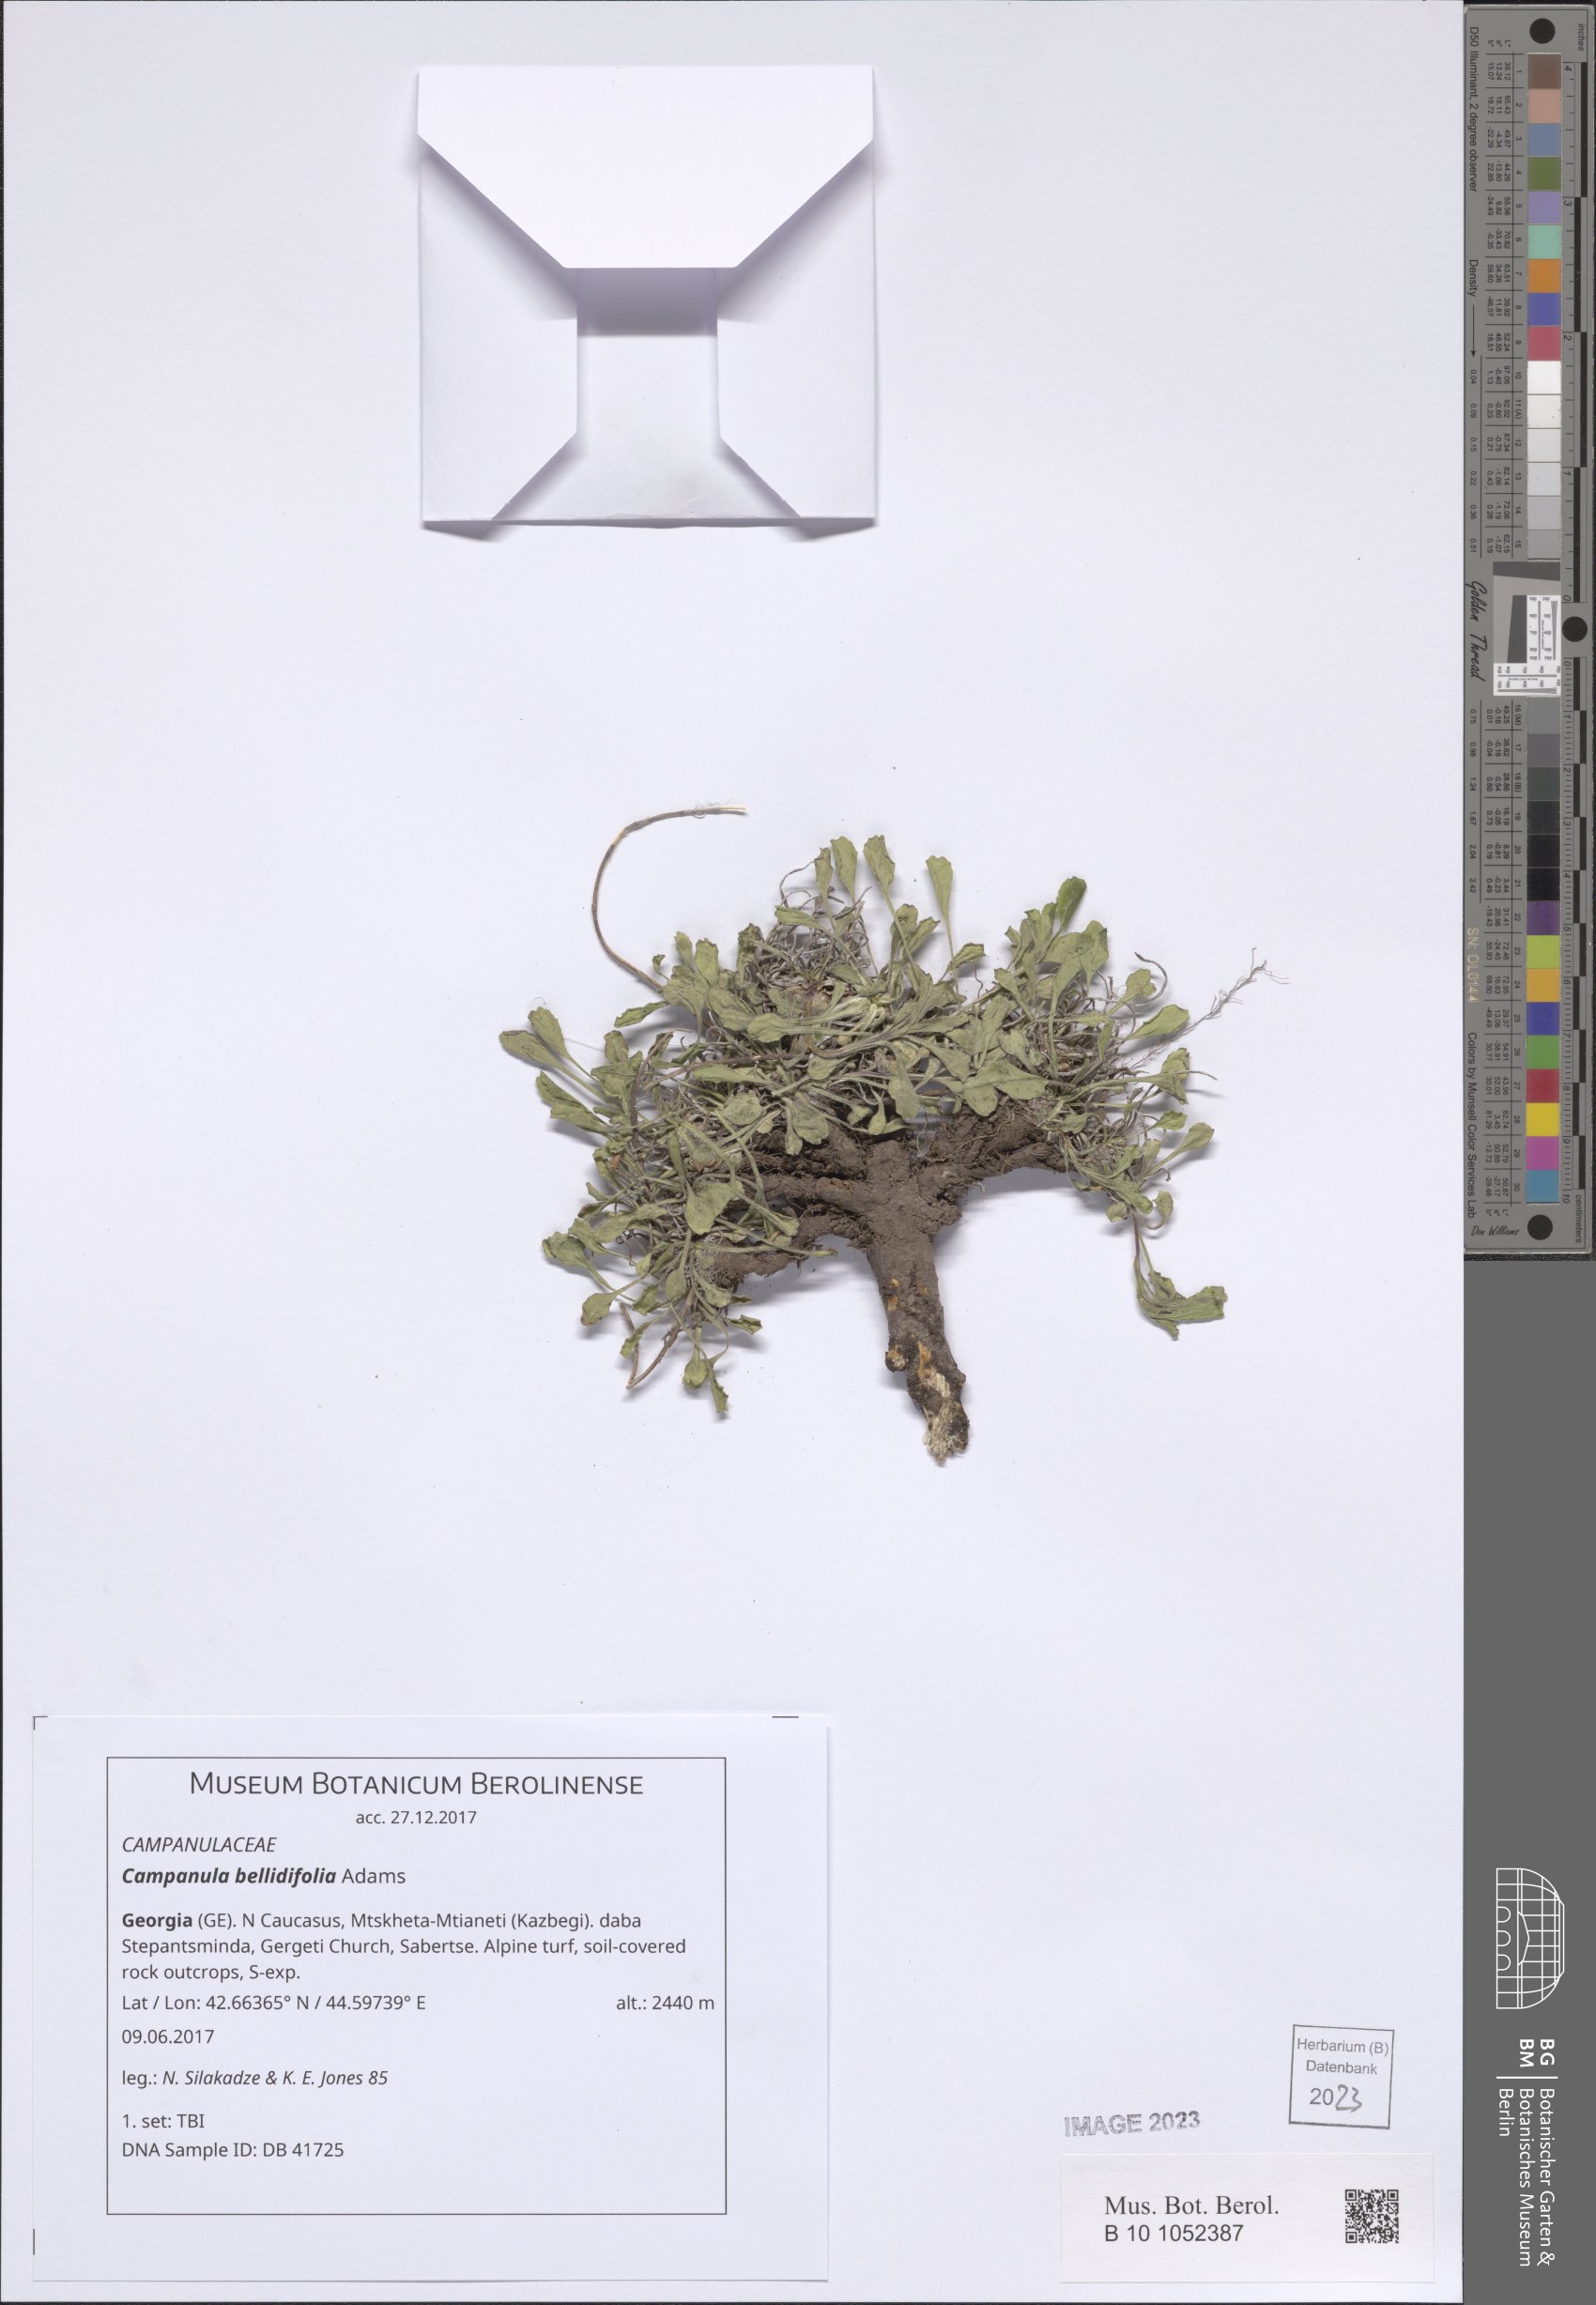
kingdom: Plantae
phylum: Tracheophyta
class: Magnoliopsida
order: Asterales
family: Campanulaceae
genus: Campanula
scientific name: Campanula bellidifolia
